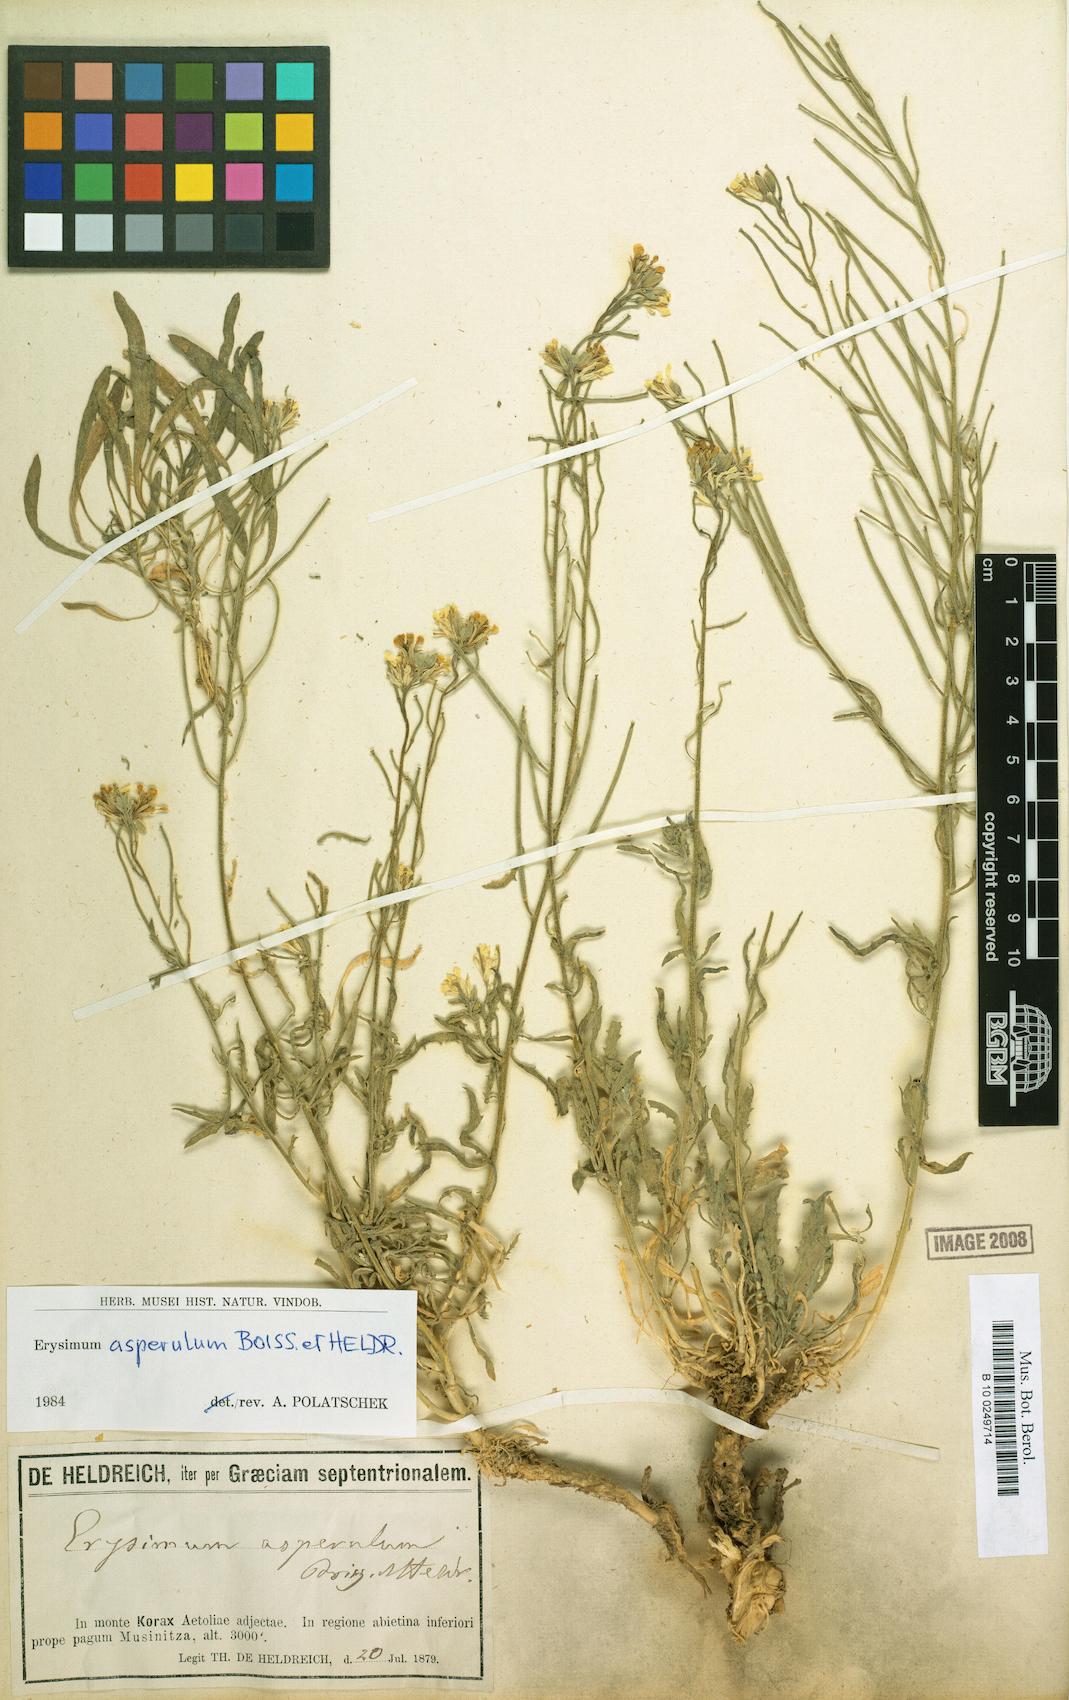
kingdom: Plantae
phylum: Tracheophyta
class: Magnoliopsida
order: Brassicales
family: Brassicaceae
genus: Erysimum
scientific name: Erysimum asperulum
